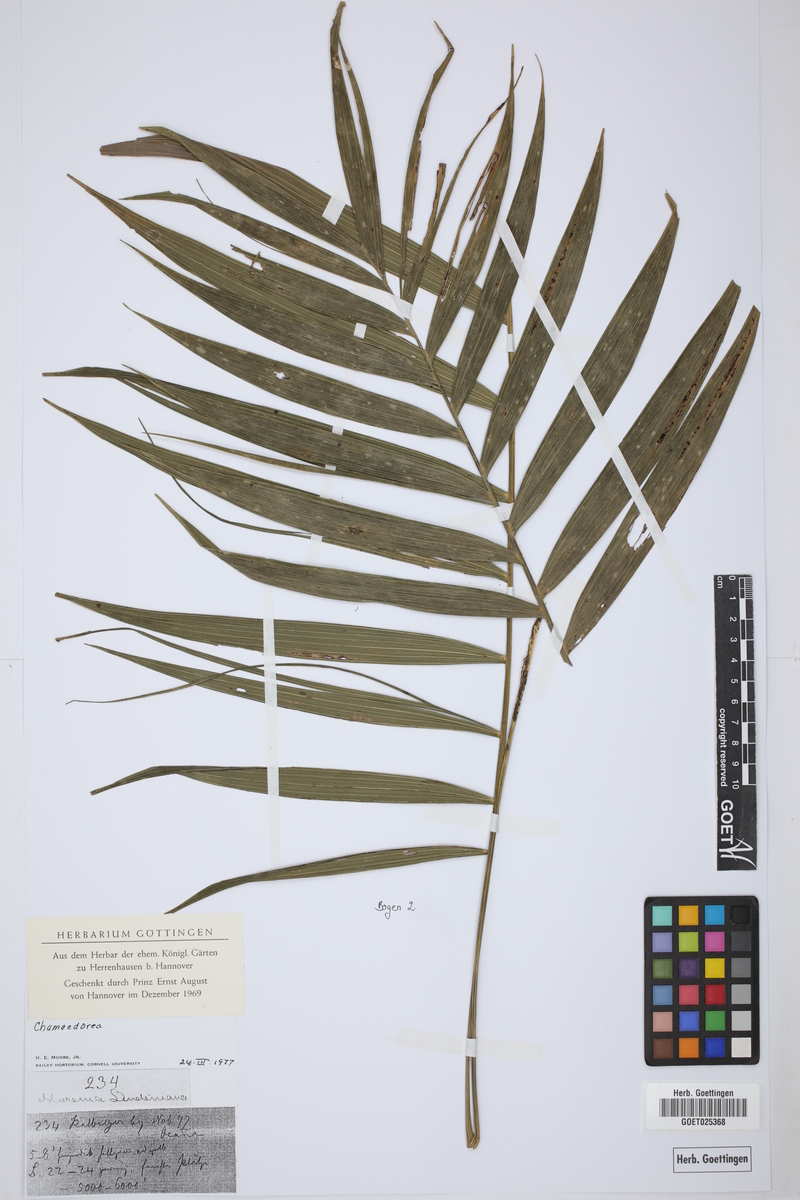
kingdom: Plantae
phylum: Tracheophyta
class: Liliopsida
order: Arecales
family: Arecaceae
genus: Chamaedorea
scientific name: Chamaedorea
